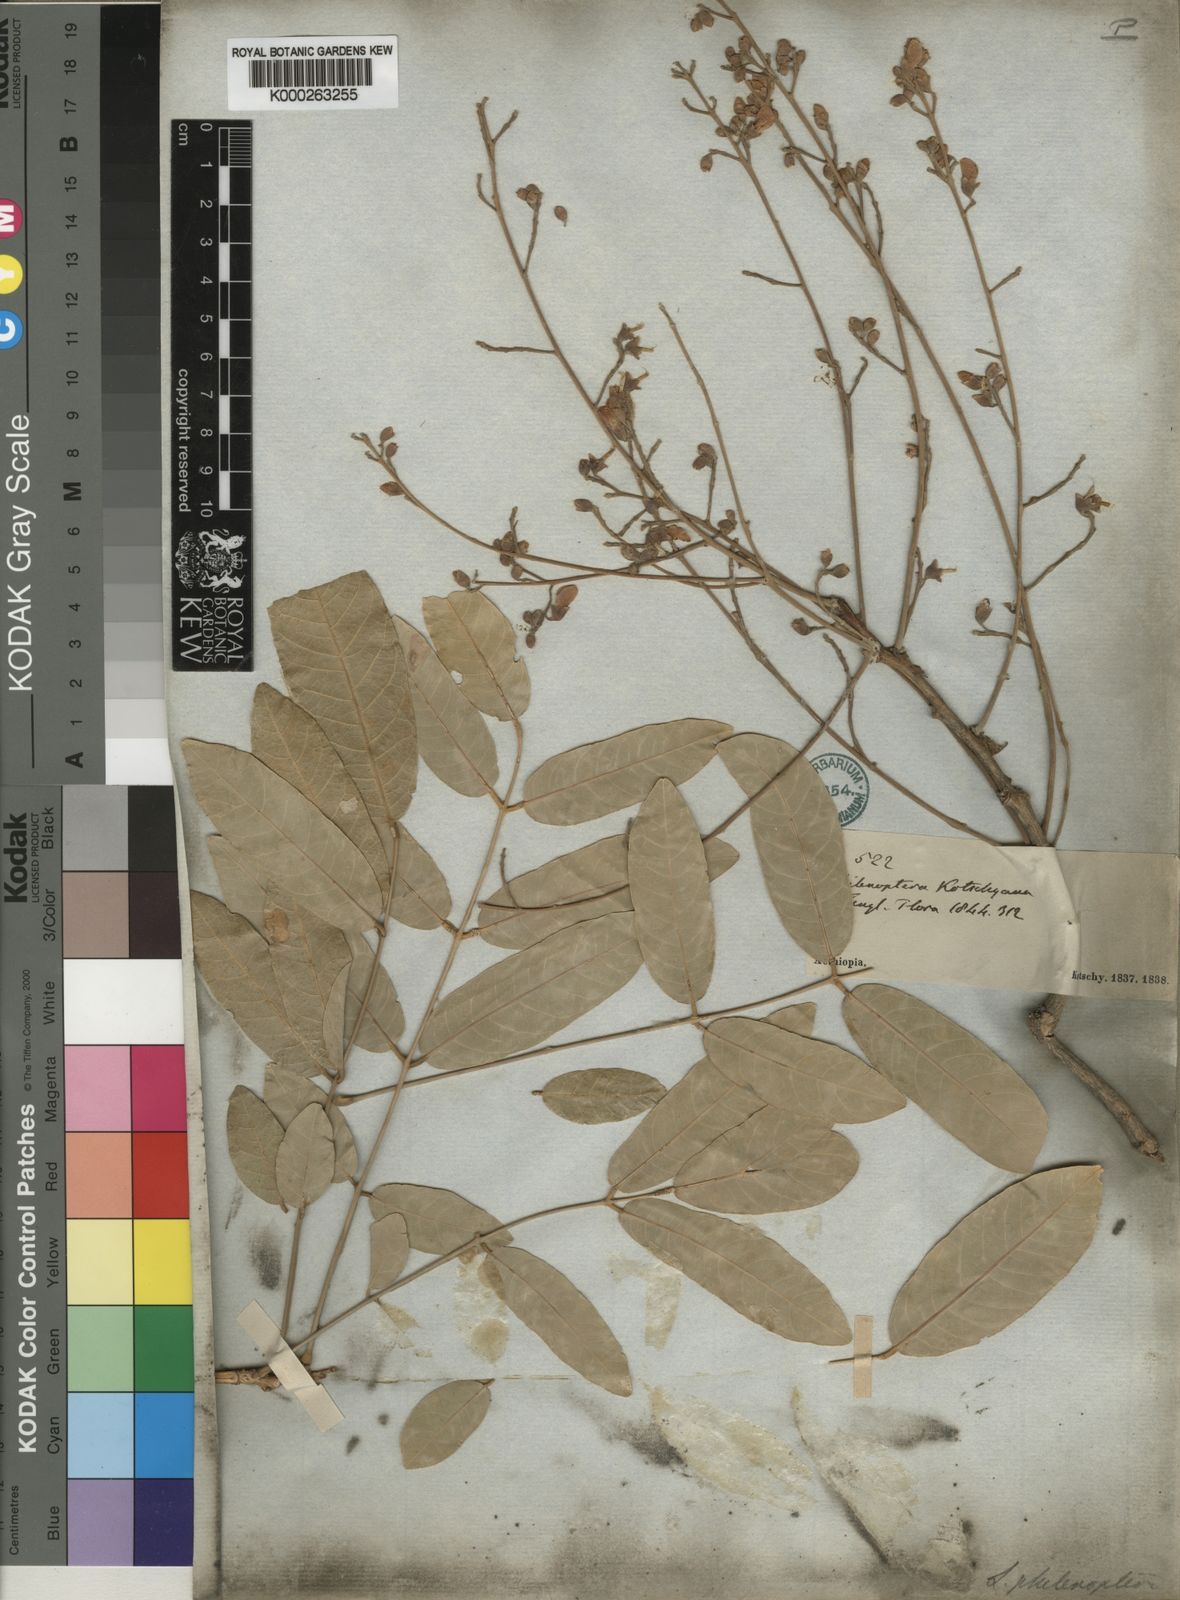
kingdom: Plantae
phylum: Tracheophyta
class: Magnoliopsida
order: Fabales
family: Fabaceae
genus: Philenoptera
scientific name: Philenoptera laxiflora
